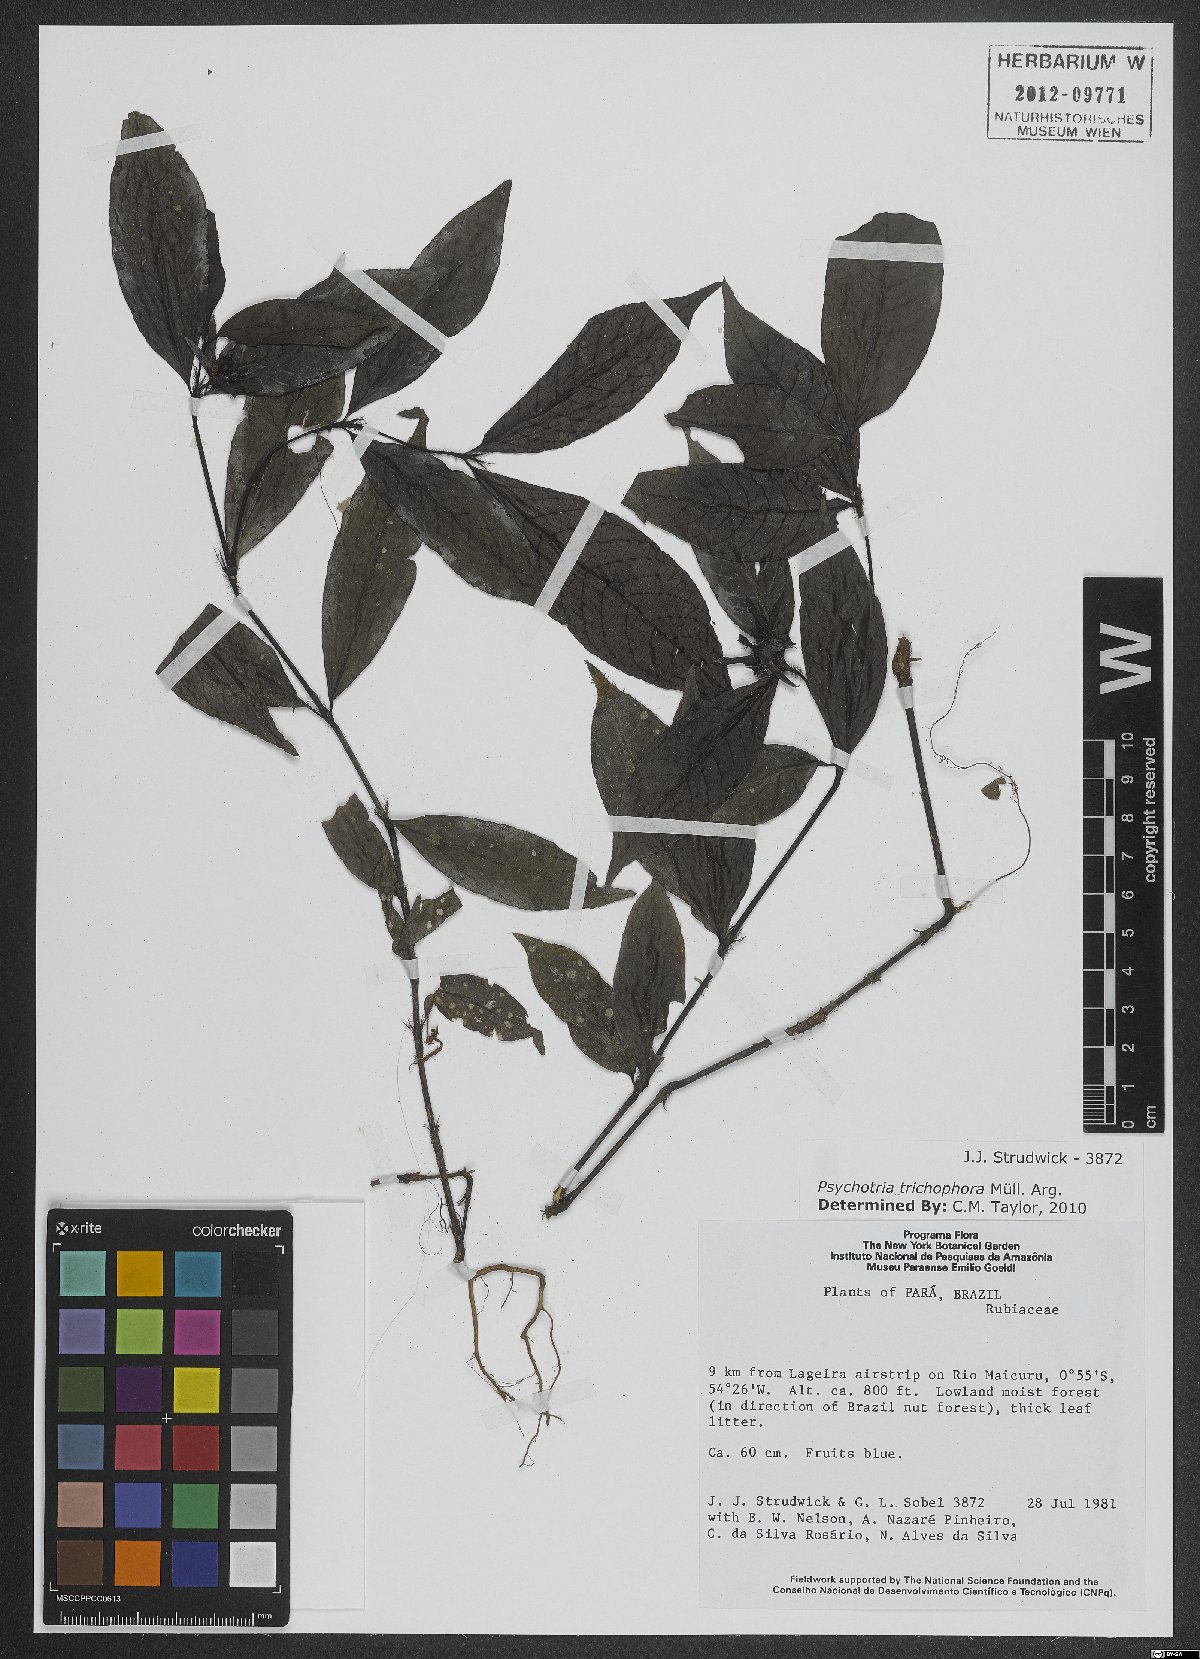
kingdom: Plantae
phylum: Tracheophyta
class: Magnoliopsida
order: Gentianales
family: Rubiaceae
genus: Palicourea
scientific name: Palicourea trichophora
